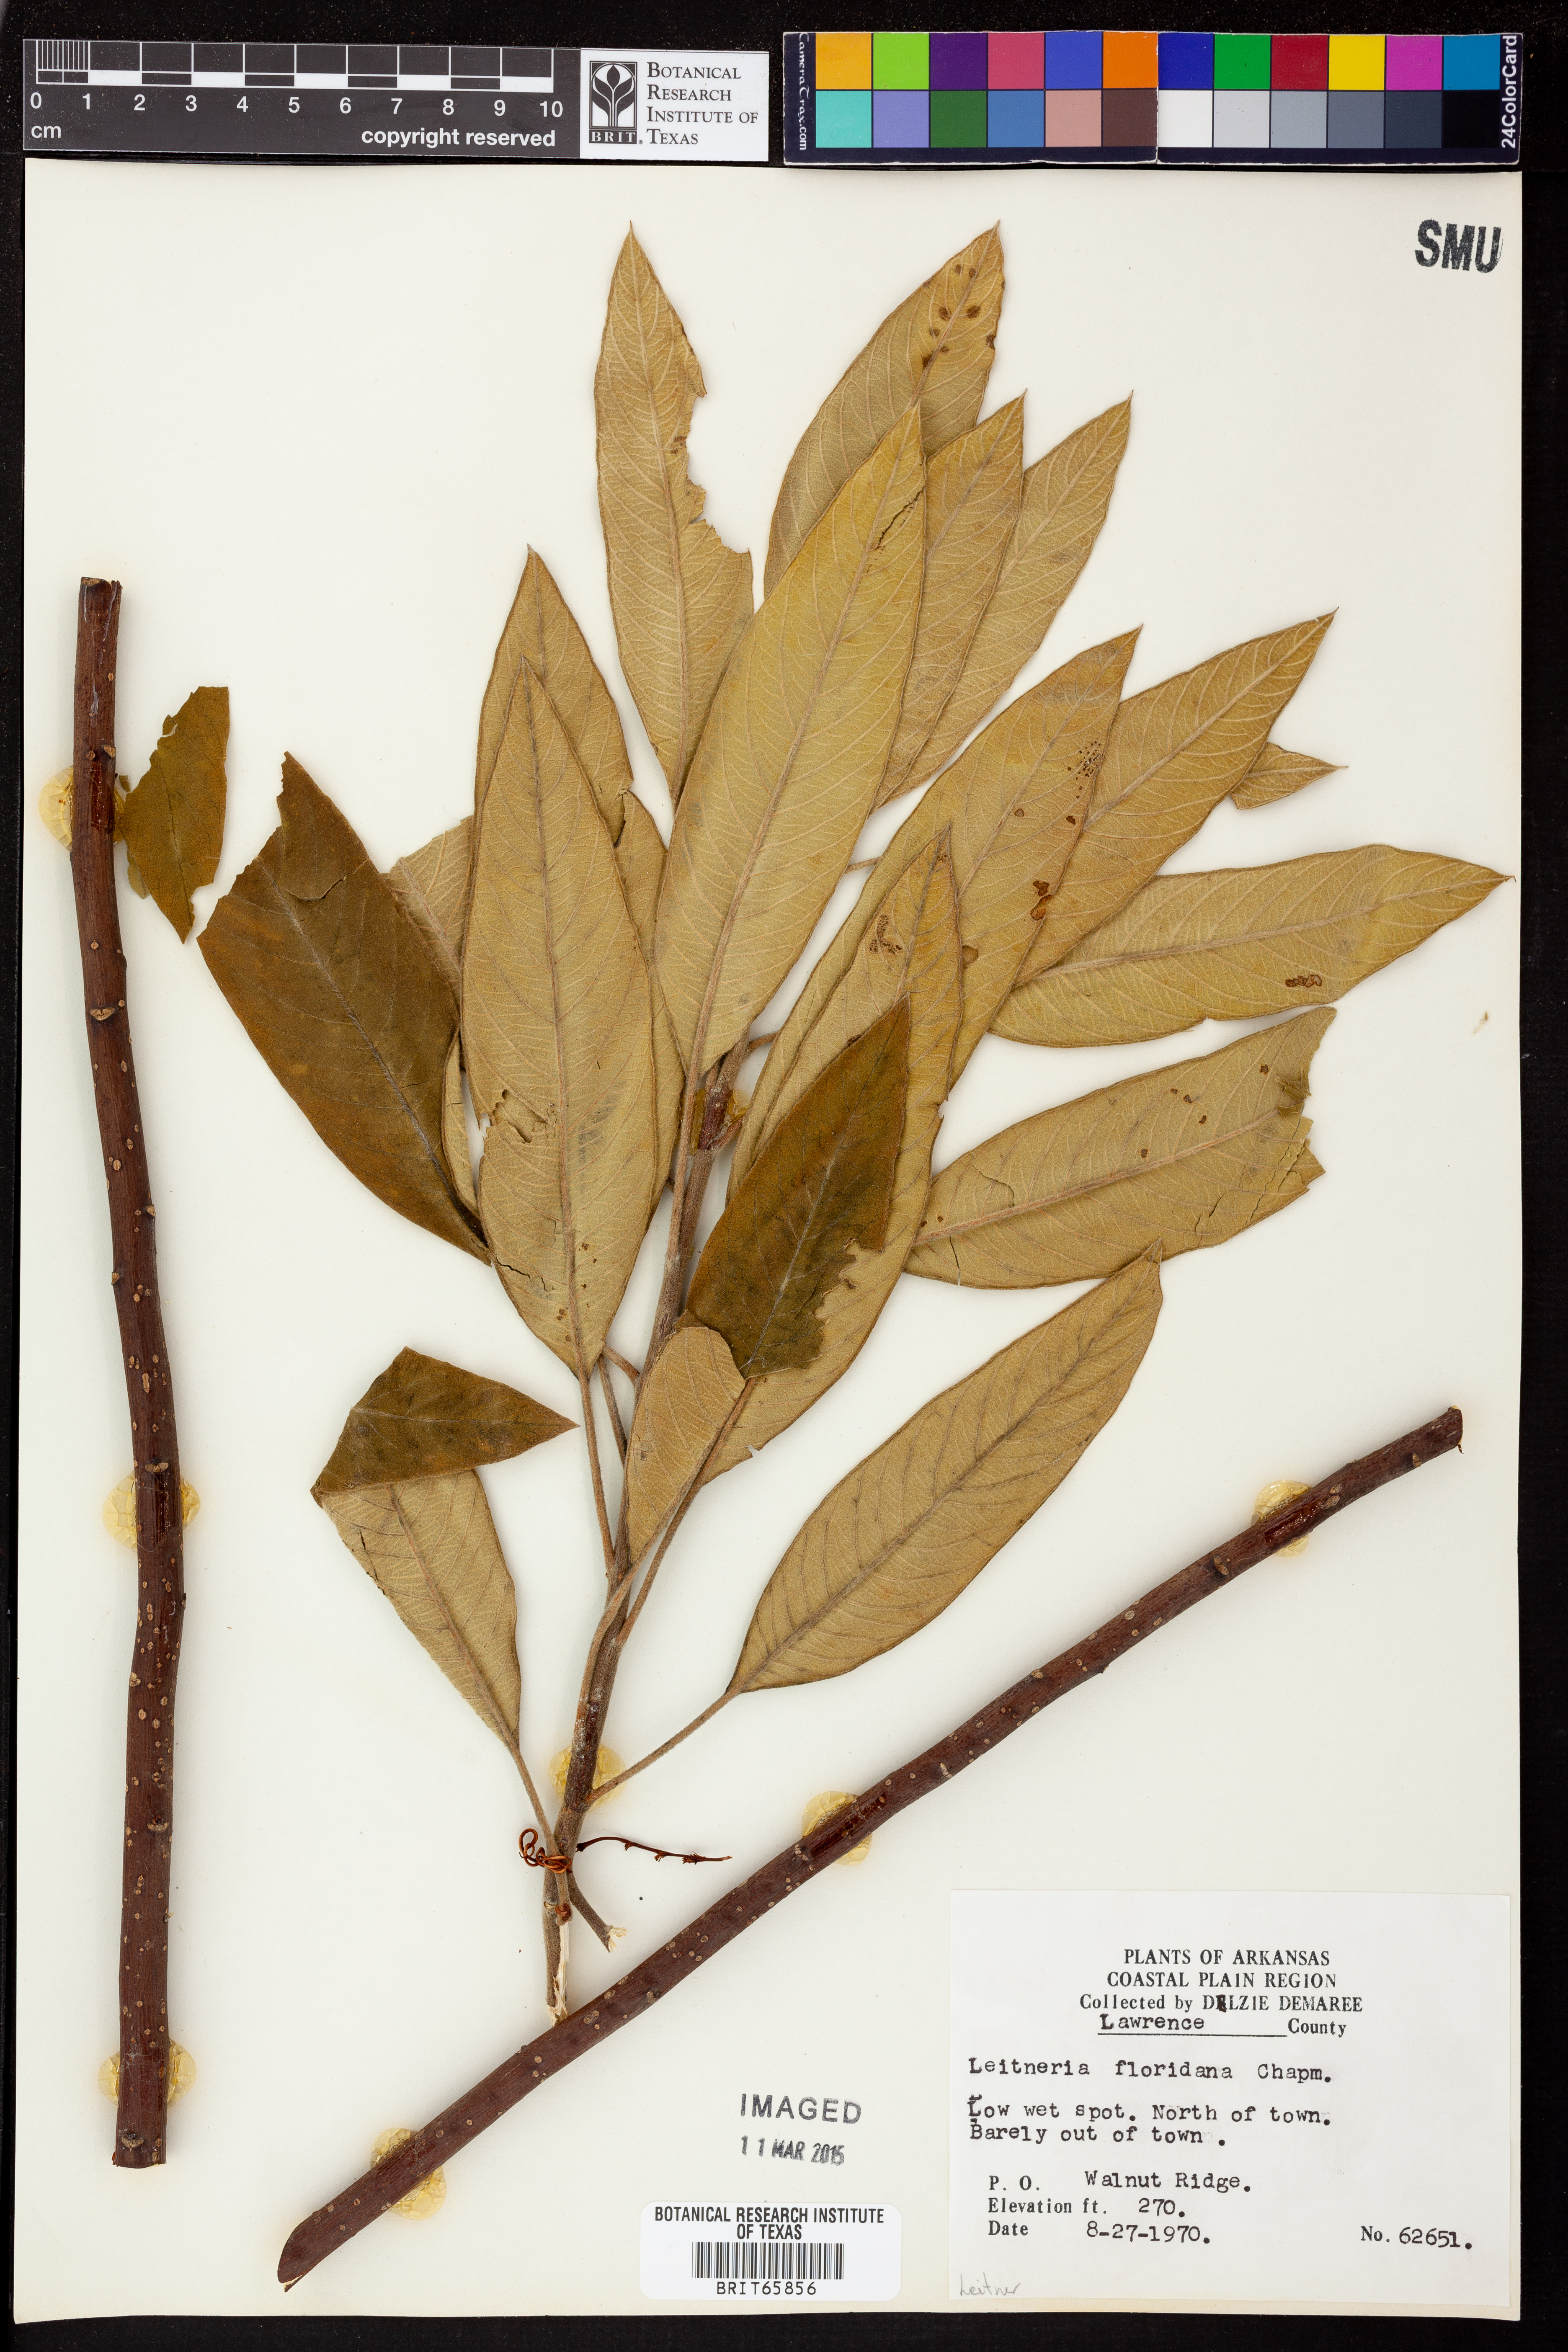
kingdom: Plantae
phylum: Tracheophyta
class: Magnoliopsida
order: Sapindales
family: Simaroubaceae
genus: Leitneria
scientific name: Leitneria floridana
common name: Corkwood
